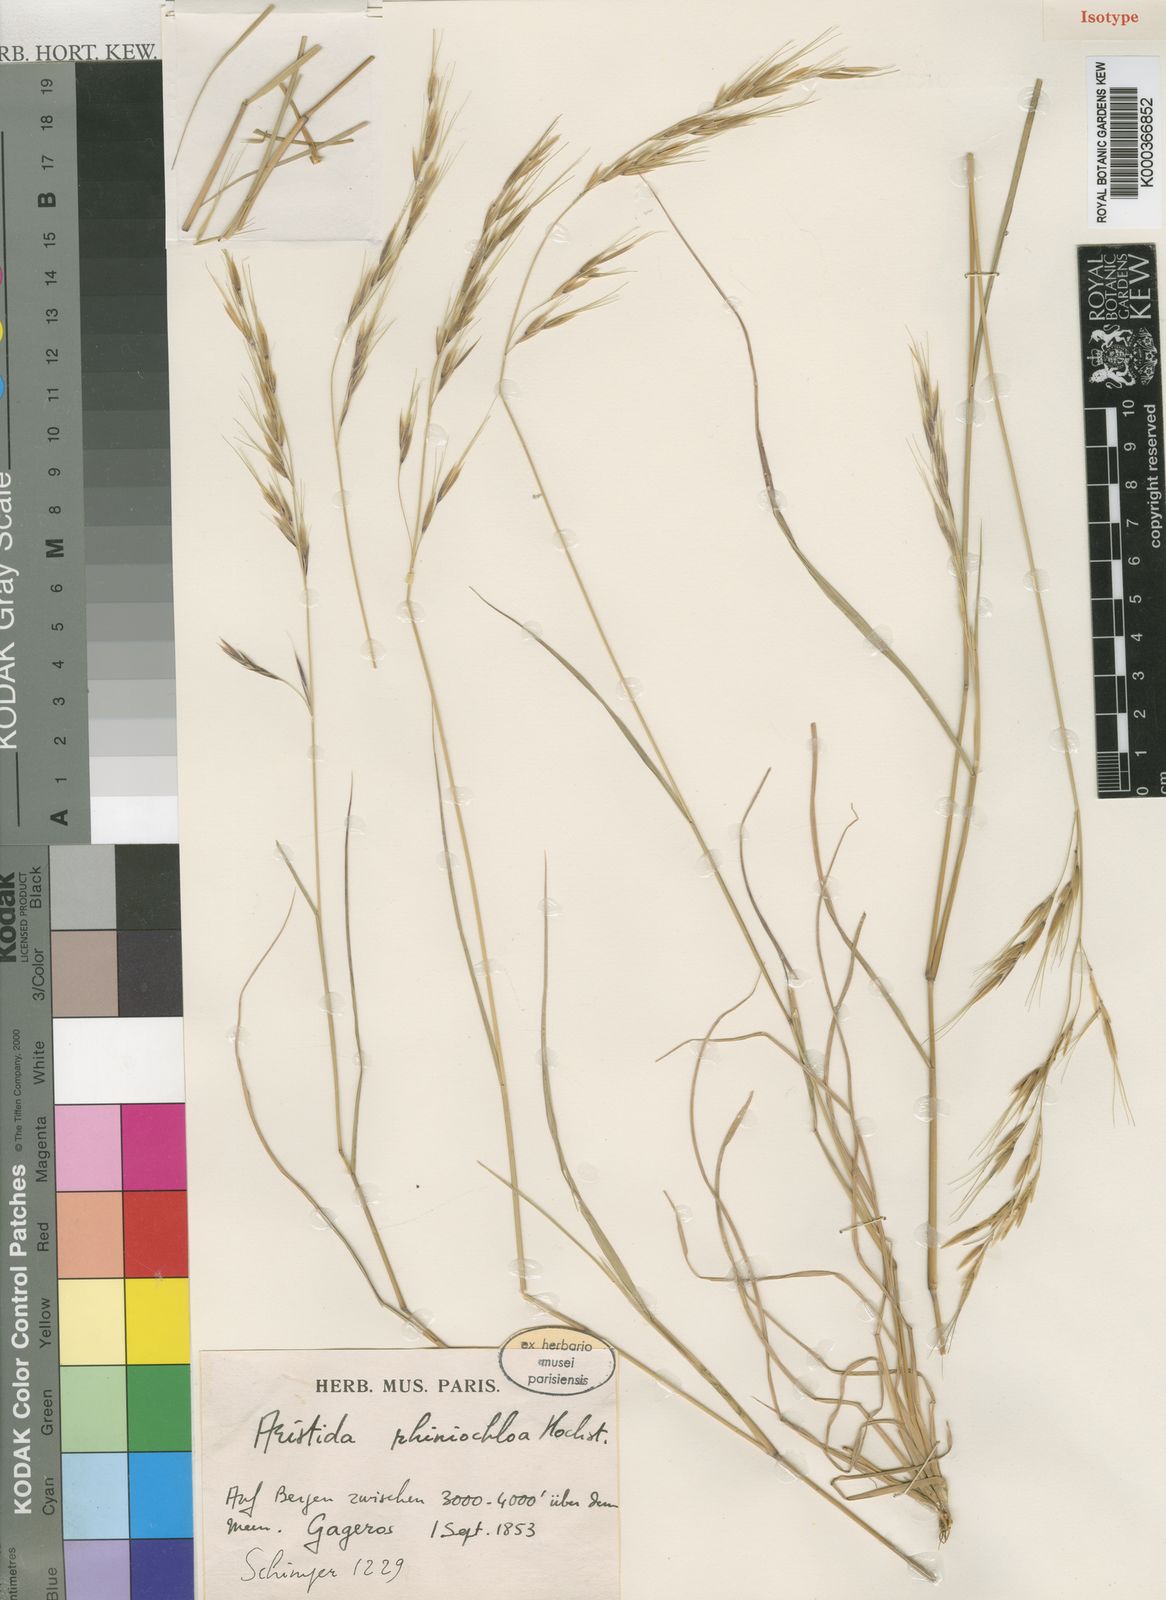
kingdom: Plantae
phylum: Tracheophyta
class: Liliopsida
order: Poales
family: Poaceae
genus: Aristida
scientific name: Aristida rhiniochloa
